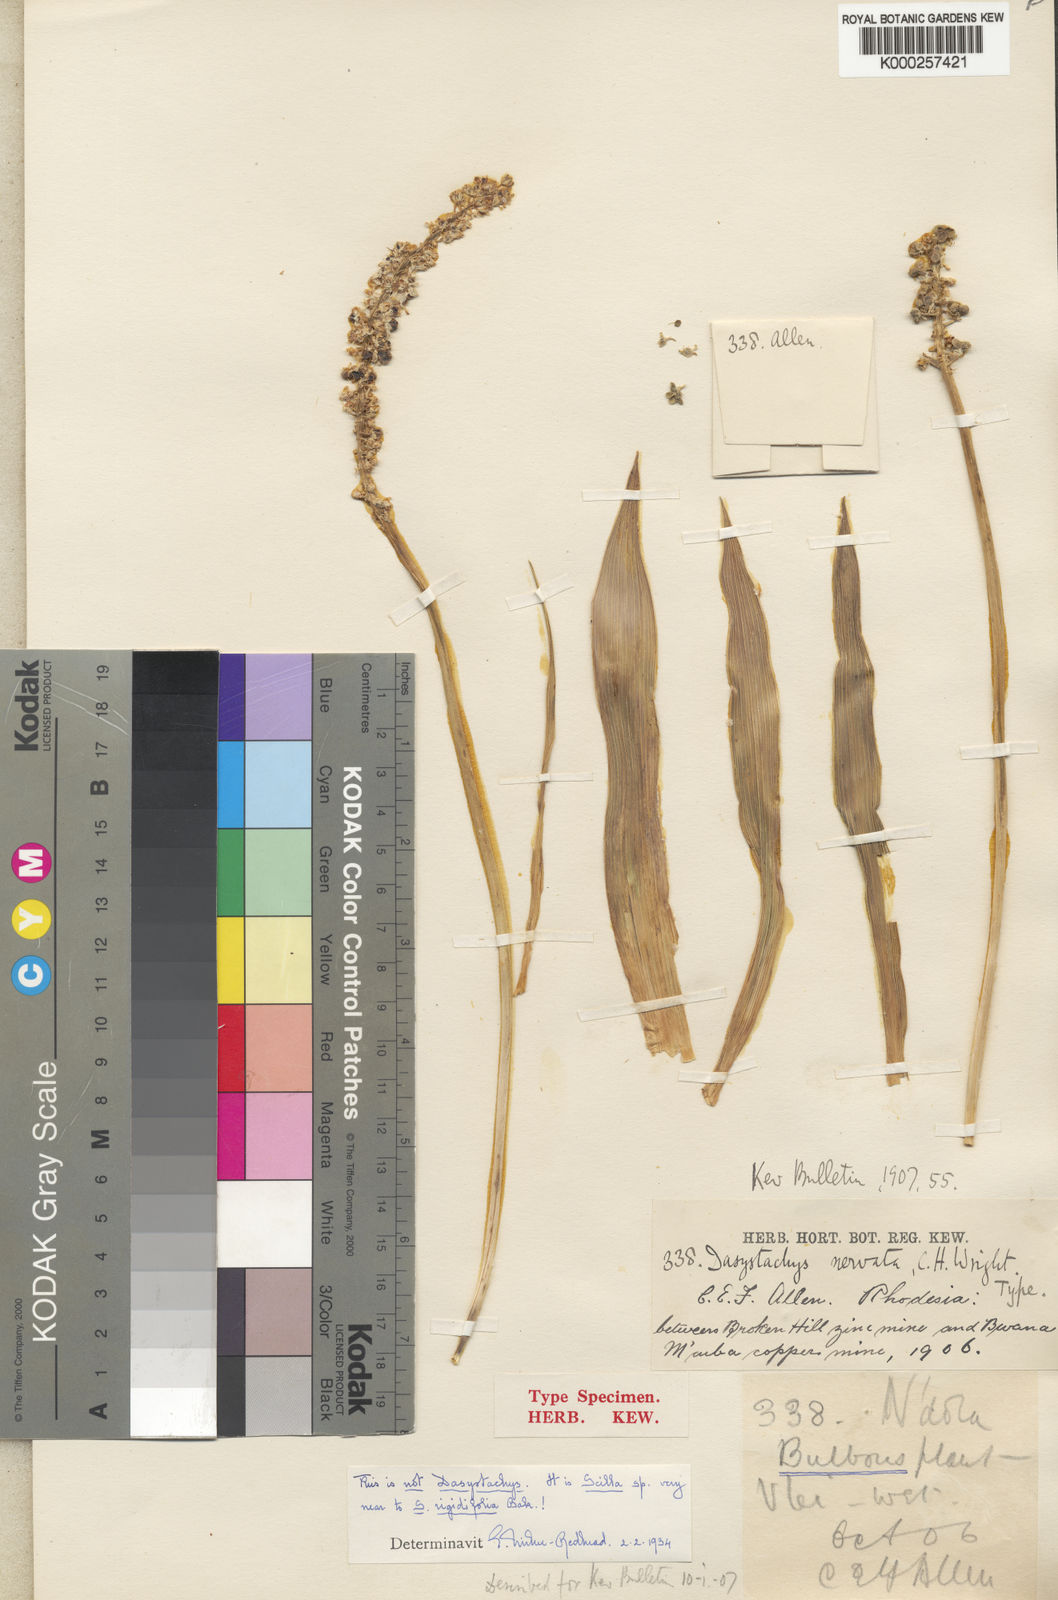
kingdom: Plantae
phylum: Tracheophyta
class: Liliopsida
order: Asparagales
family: Asparagaceae
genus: Schizocarphus
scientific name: Schizocarphus nervosus
